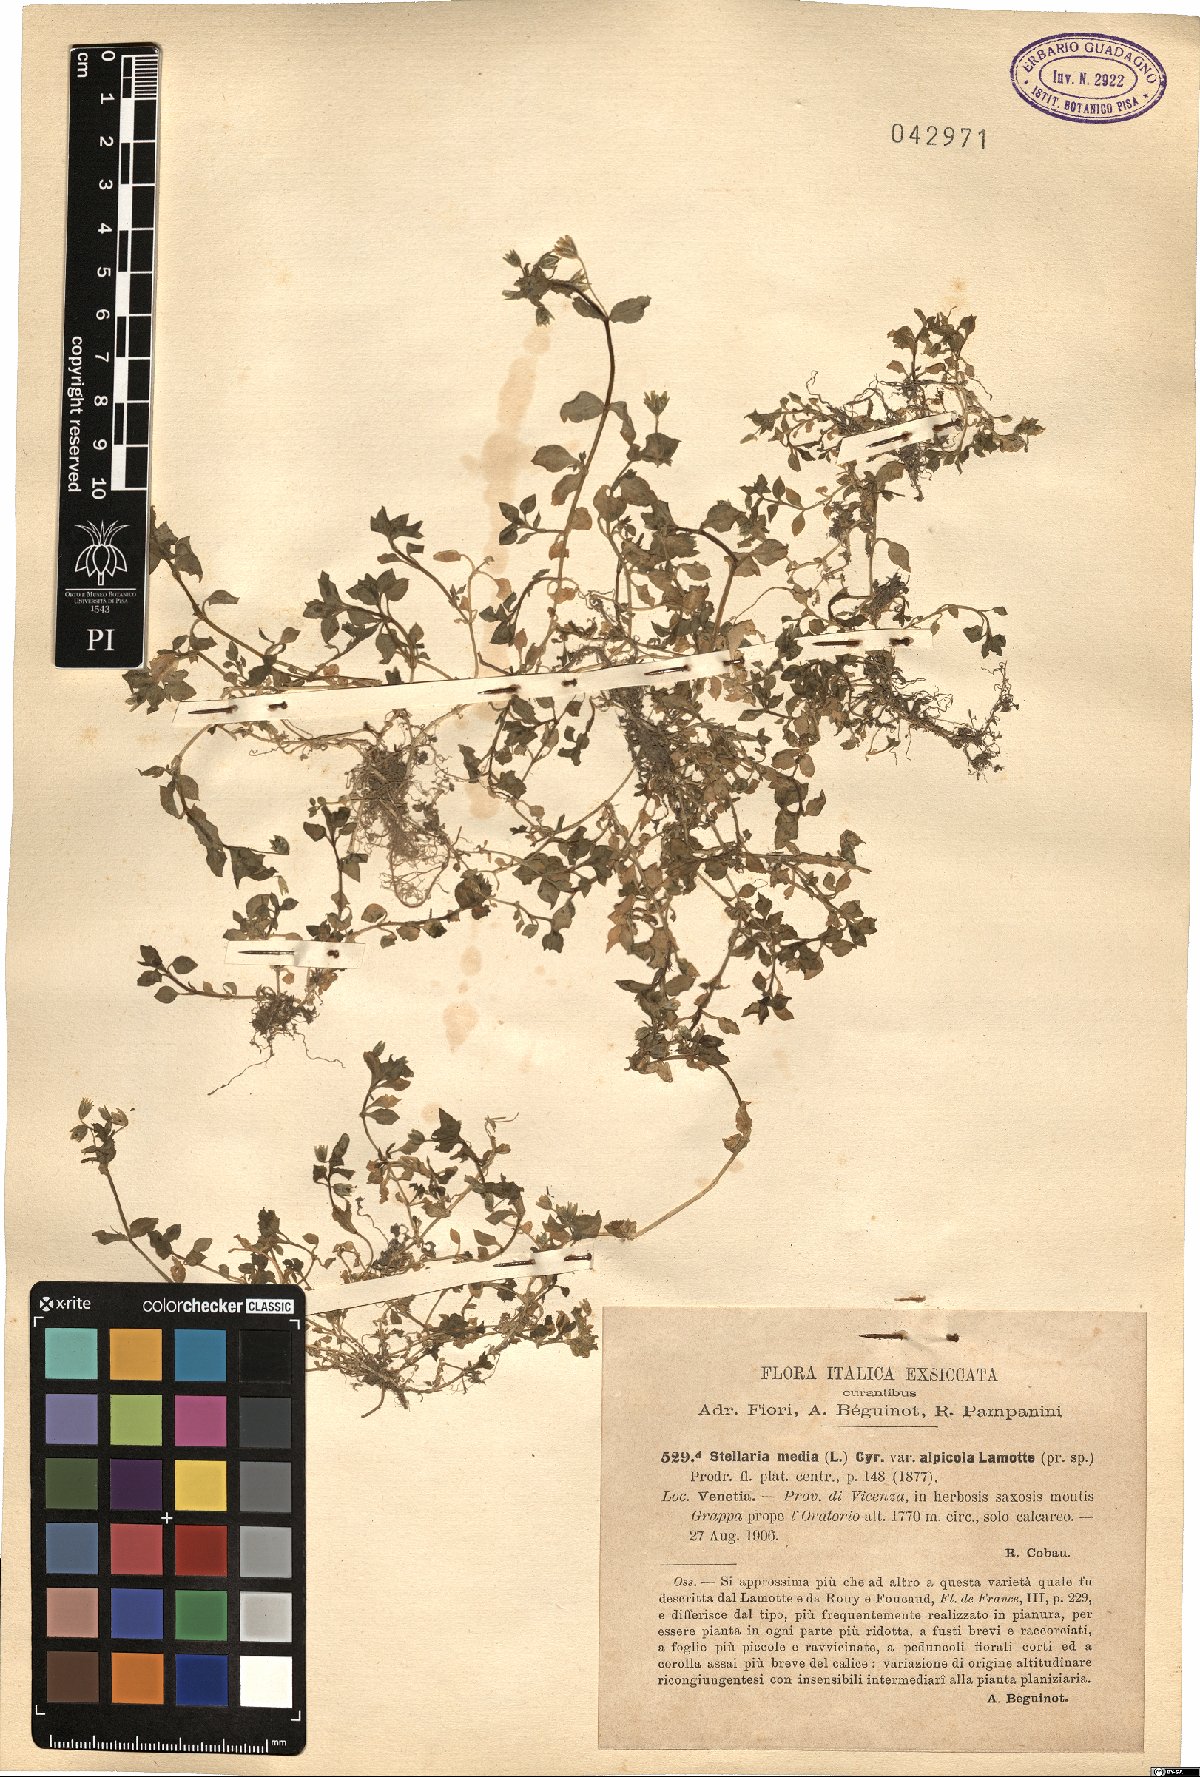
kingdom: Plantae
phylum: Tracheophyta
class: Magnoliopsida
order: Caryophyllales
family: Caryophyllaceae
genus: Stellaria
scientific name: Stellaria media
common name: Common chickweed
